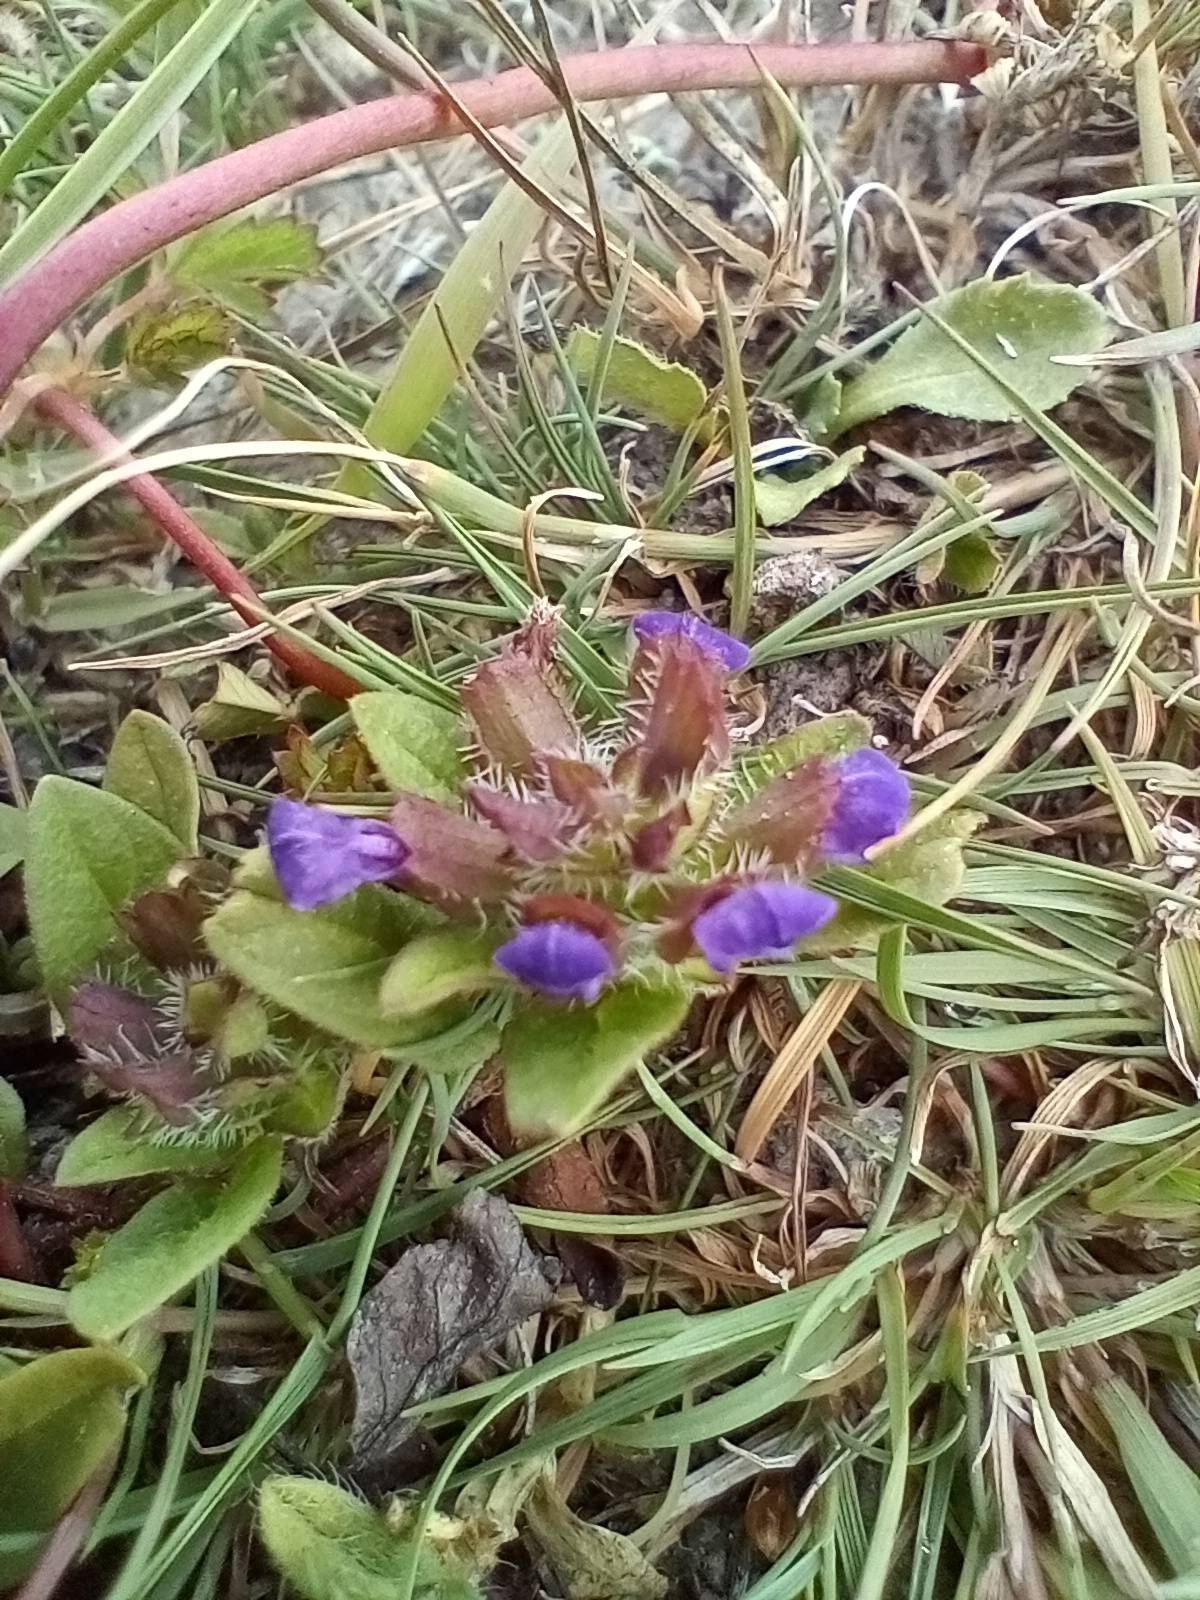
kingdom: Plantae
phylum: Tracheophyta
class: Magnoliopsida
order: Lamiales
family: Lamiaceae
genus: Prunella
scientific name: Prunella vulgaris
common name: Almindelig brunelle
